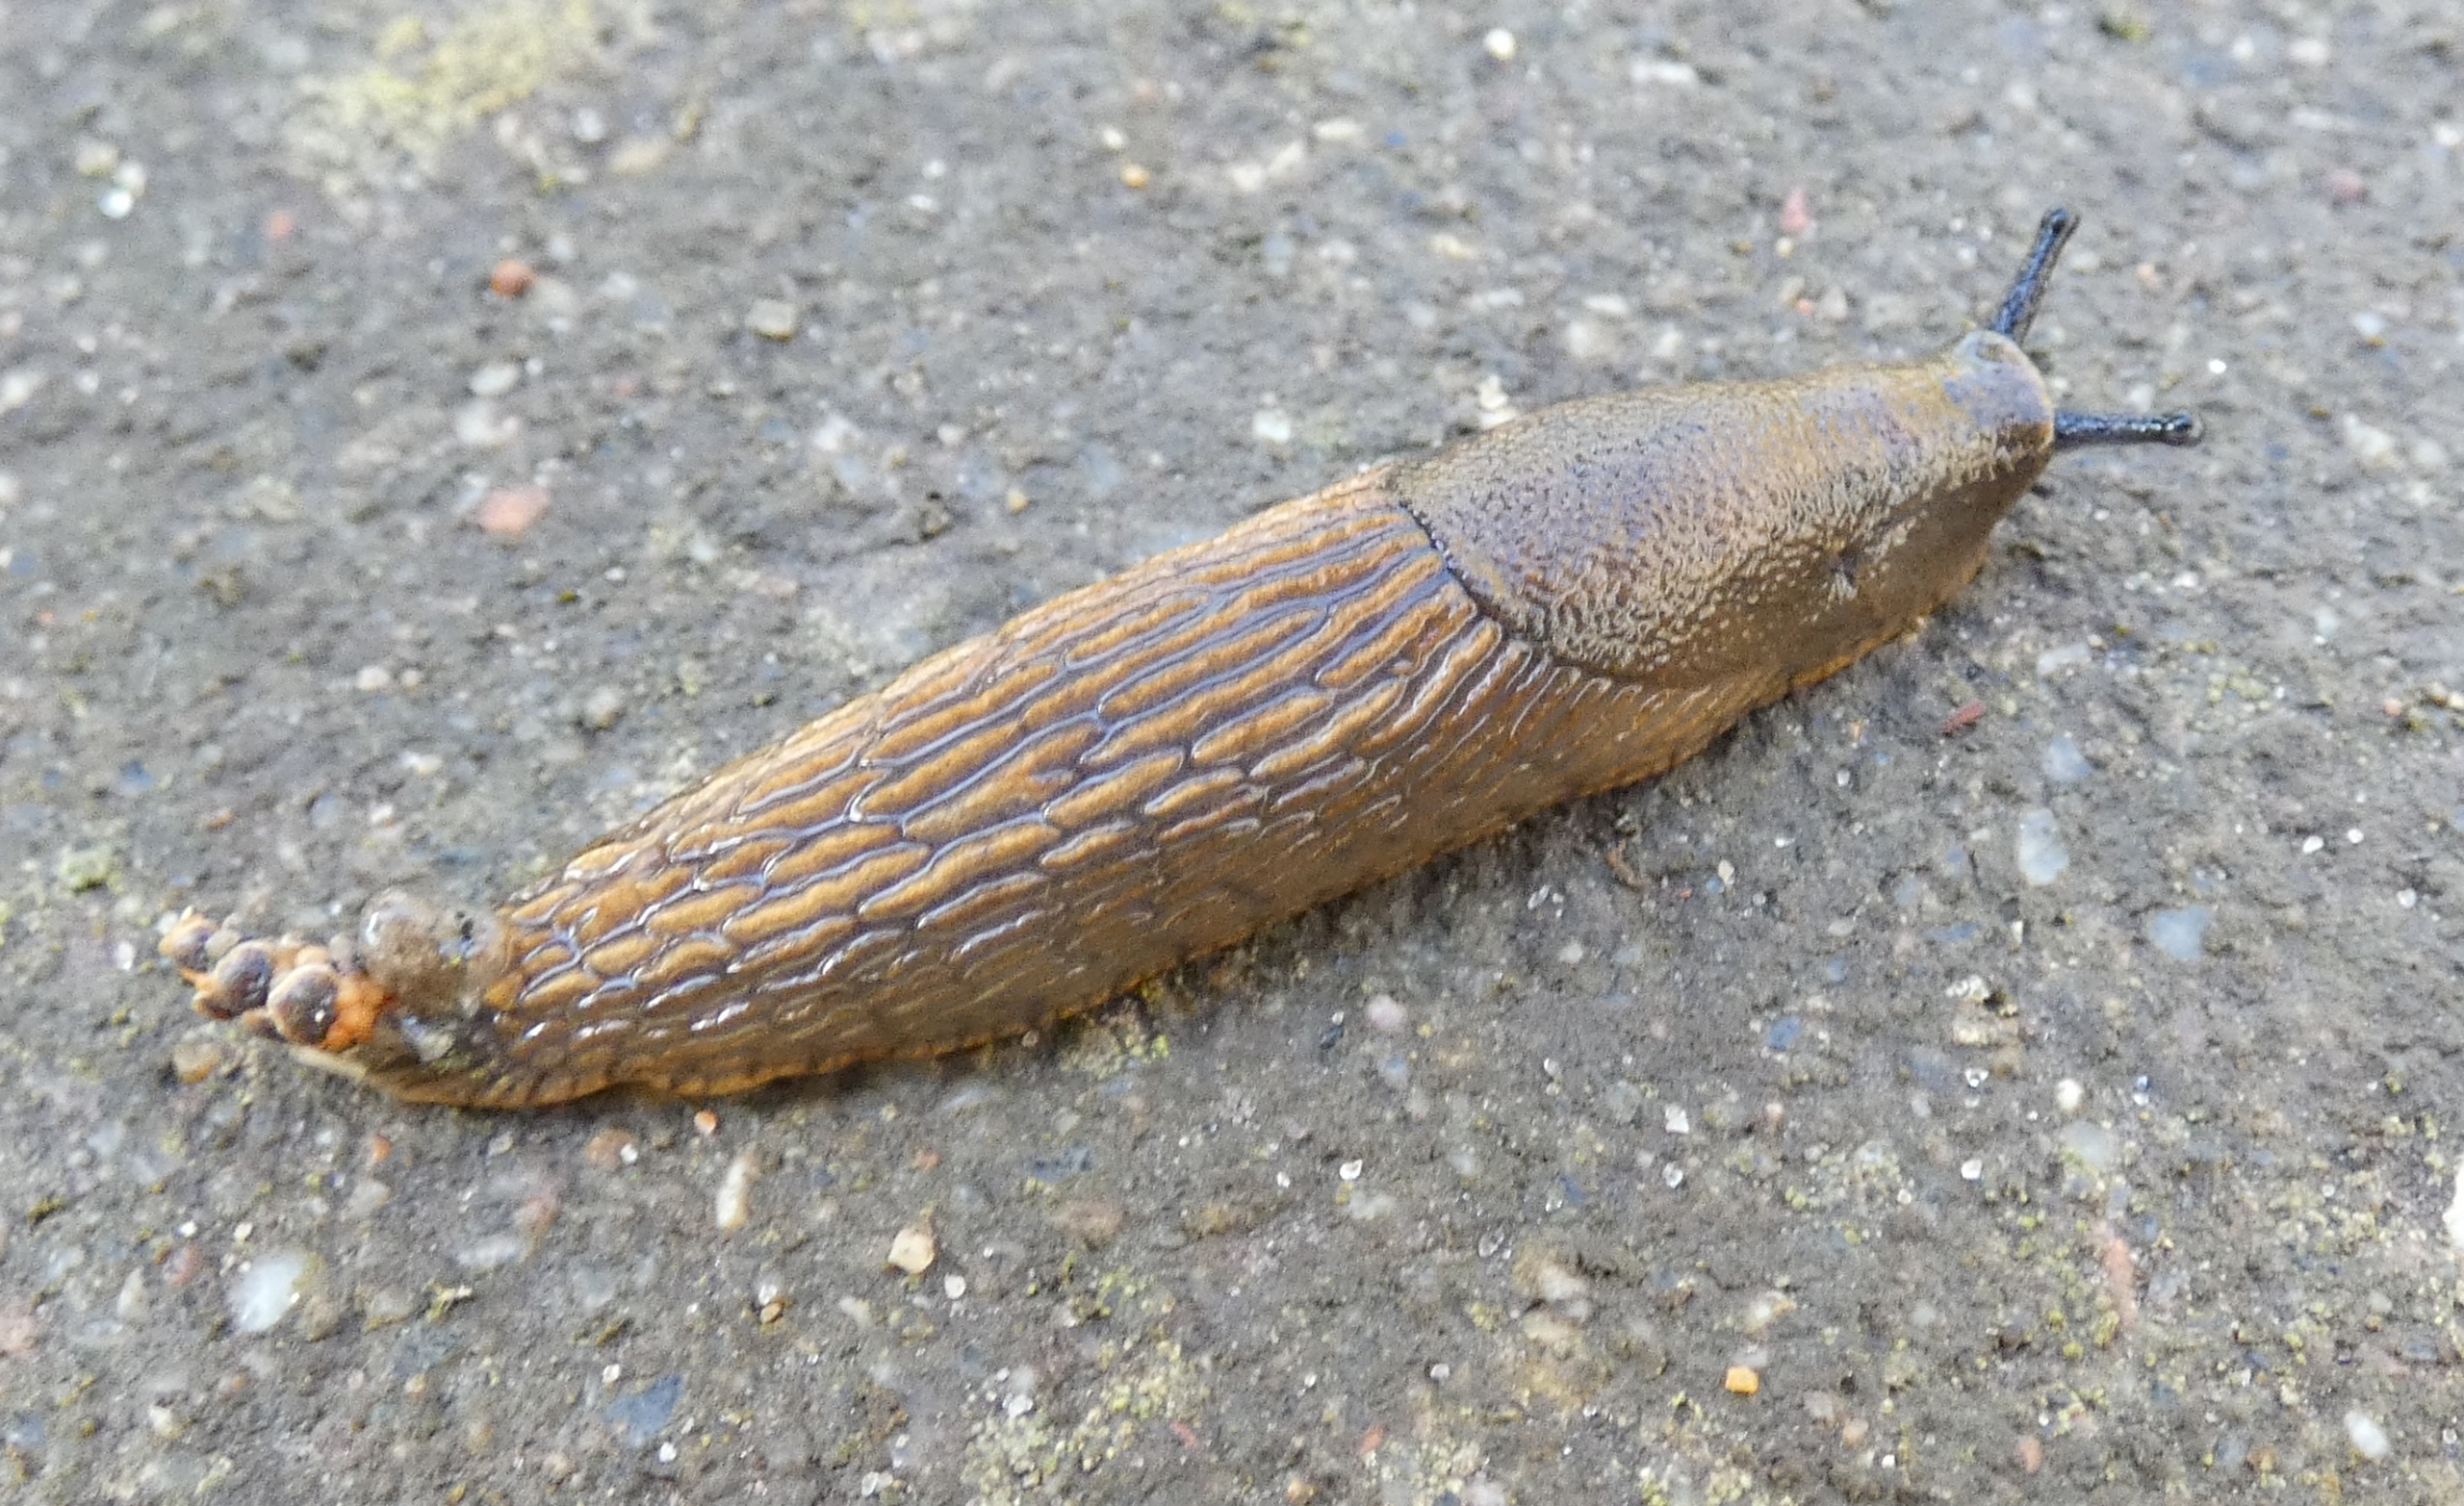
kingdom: Animalia
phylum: Mollusca
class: Gastropoda
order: Stylommatophora
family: Arionidae
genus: Arion
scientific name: Arion vulgaris
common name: Iberisk skovsnegl
